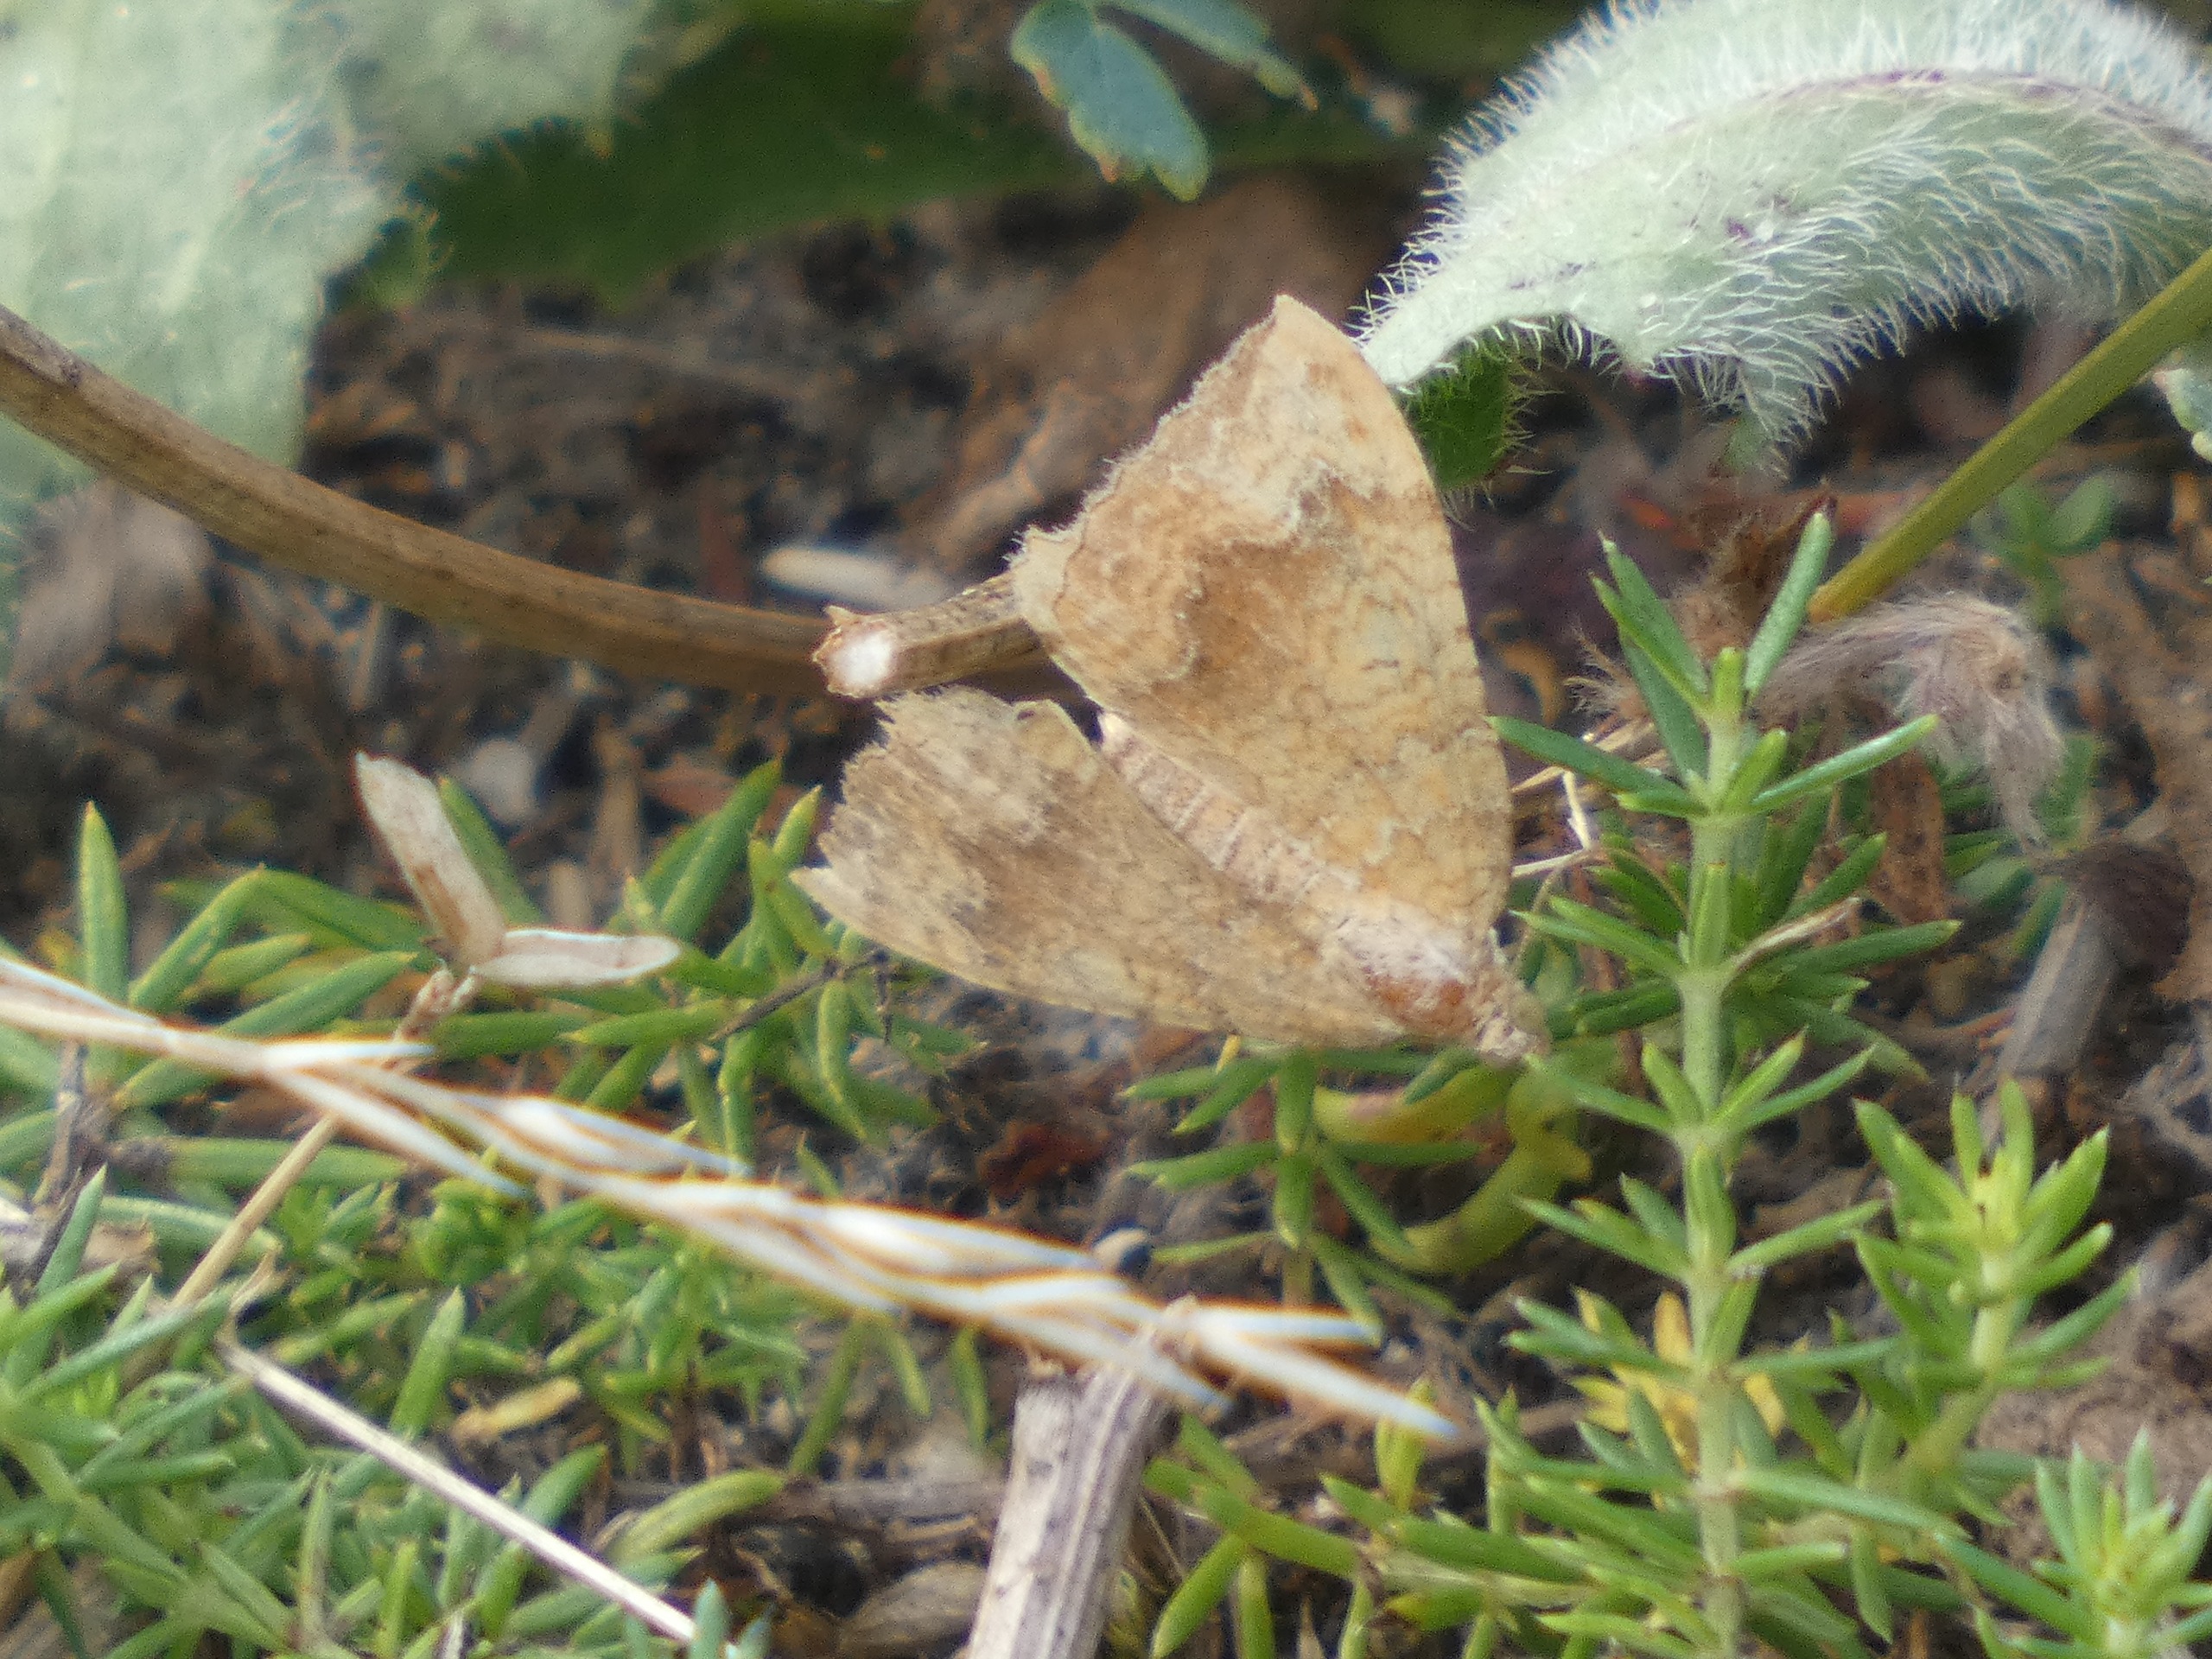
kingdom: Animalia
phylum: Arthropoda
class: Insecta
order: Lepidoptera
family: Geometridae
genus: Camptogramma
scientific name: Camptogramma bilineata
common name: Okkergul bladmåler
